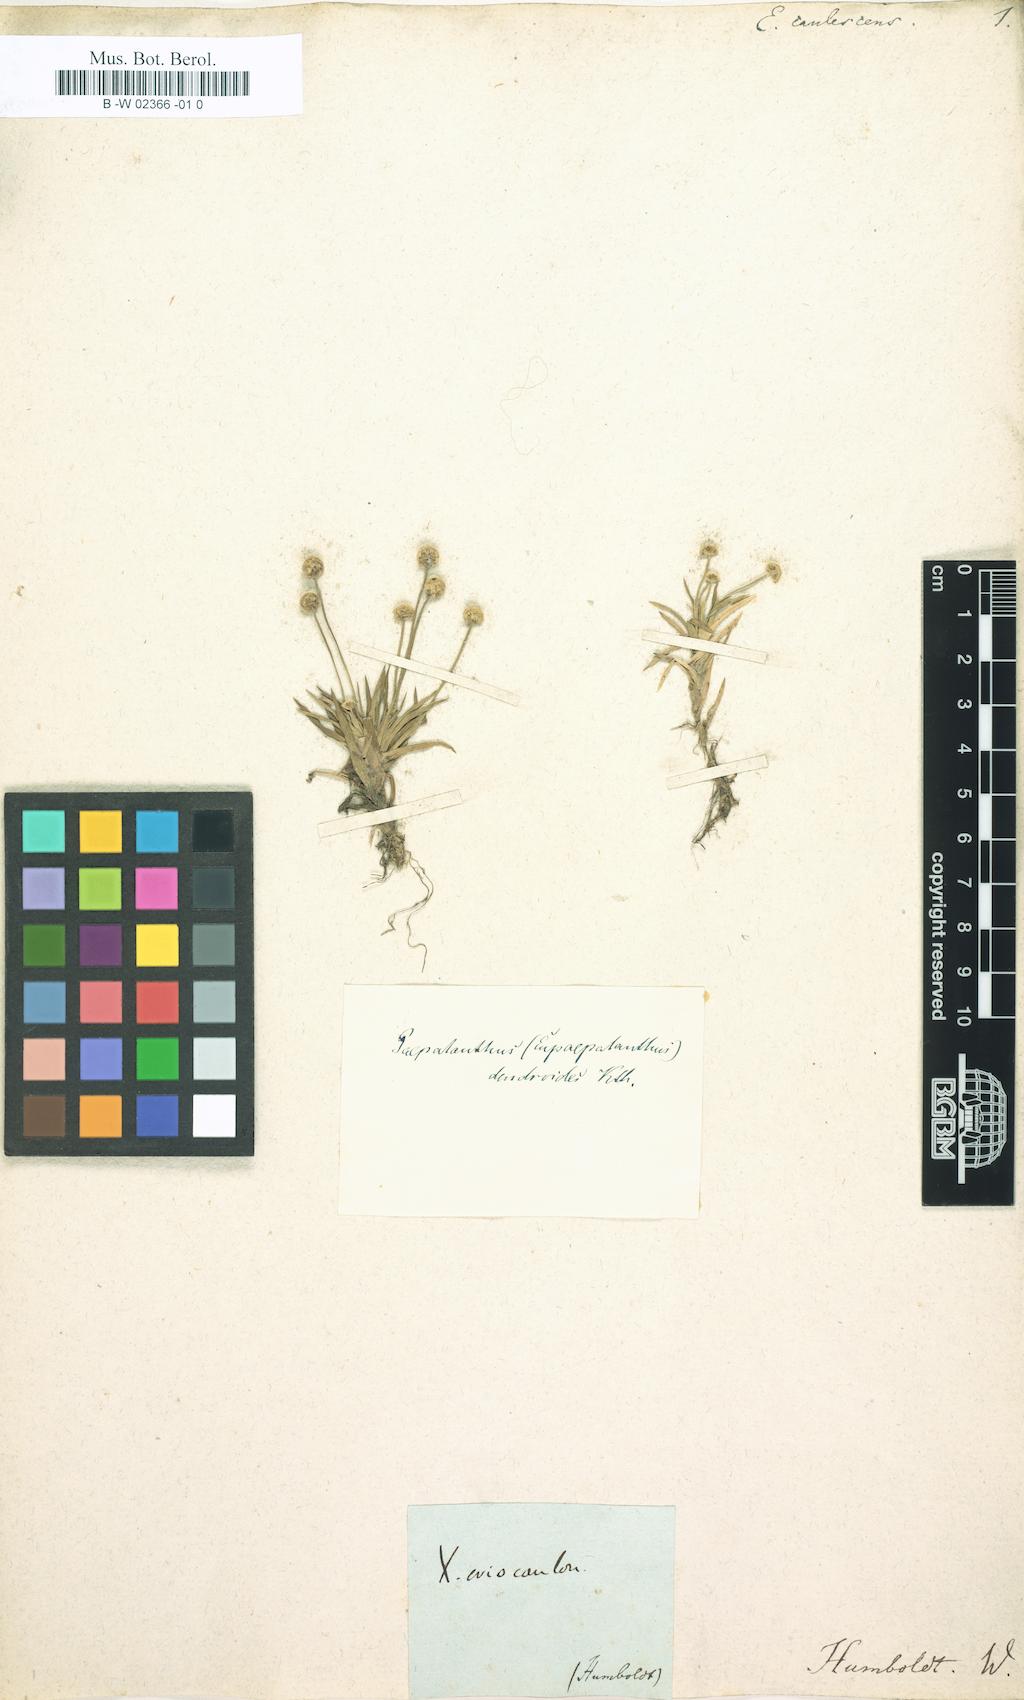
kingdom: Plantae
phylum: Tracheophyta
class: Liliopsida
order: Poales
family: Eriocaulaceae
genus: Syngonanthus
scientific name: Syngonanthus caulescens
